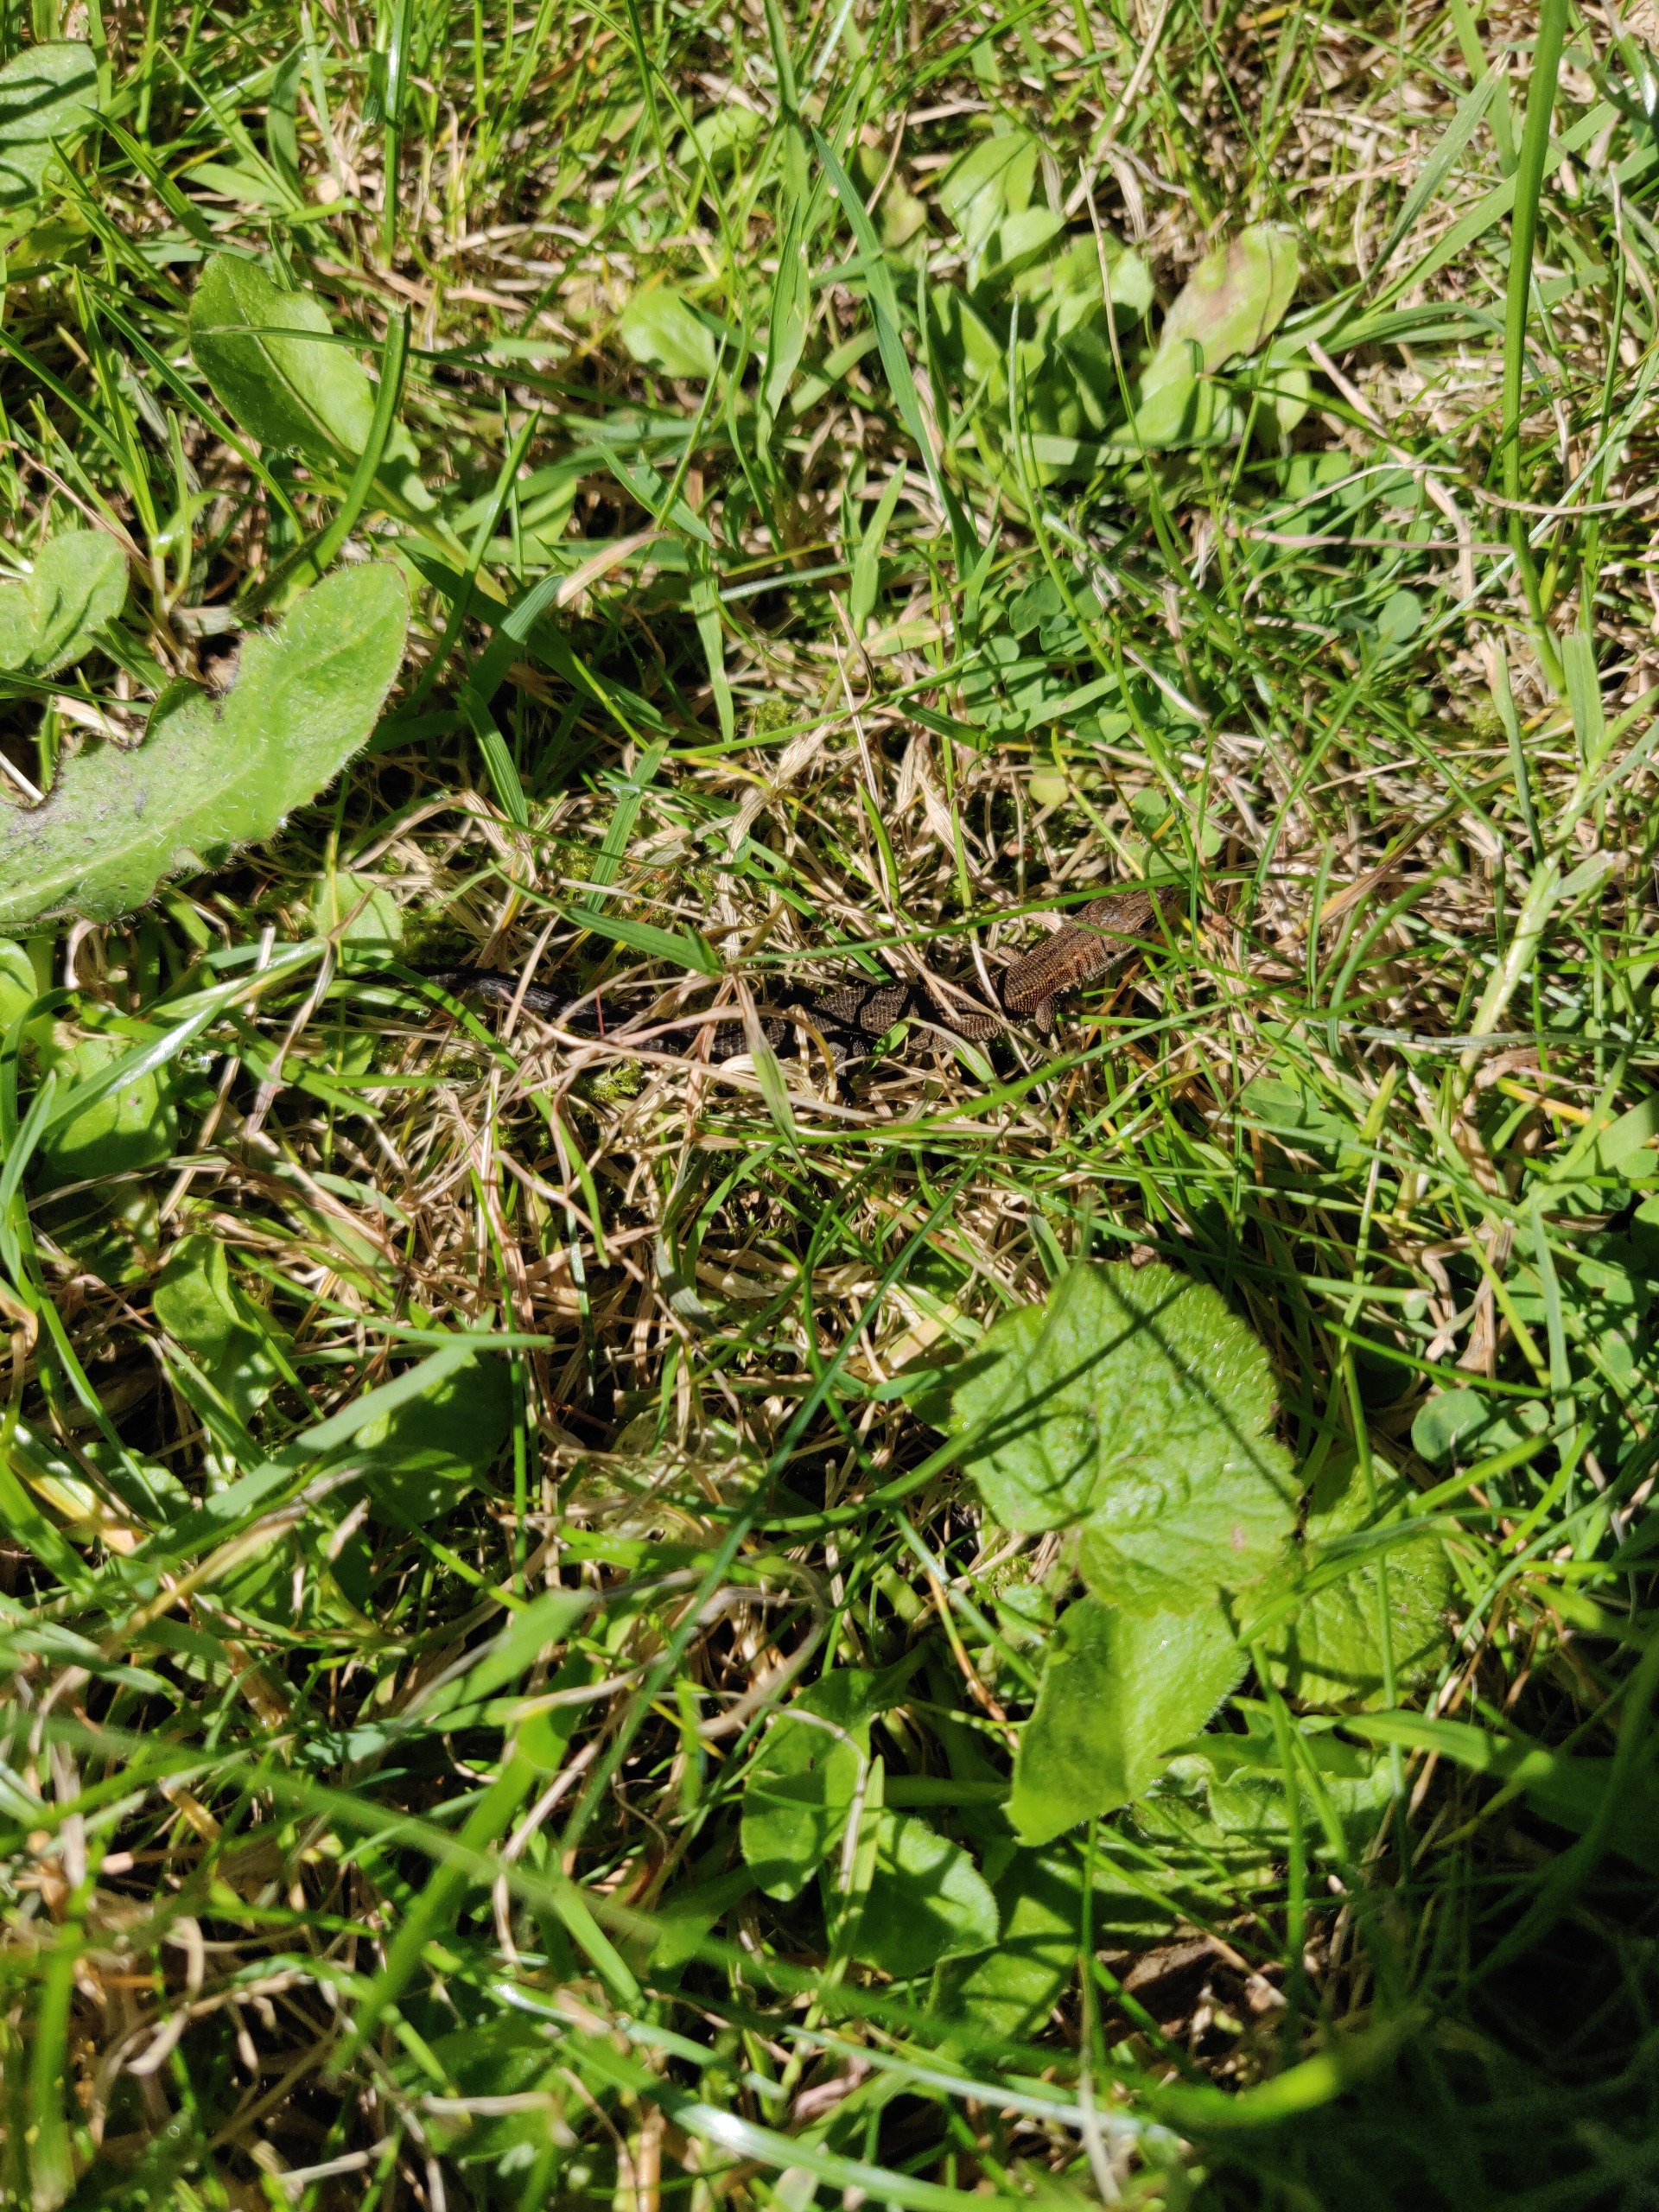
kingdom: Animalia
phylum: Chordata
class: Squamata
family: Lacertidae
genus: Zootoca
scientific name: Zootoca vivipara
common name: Skovfirben
